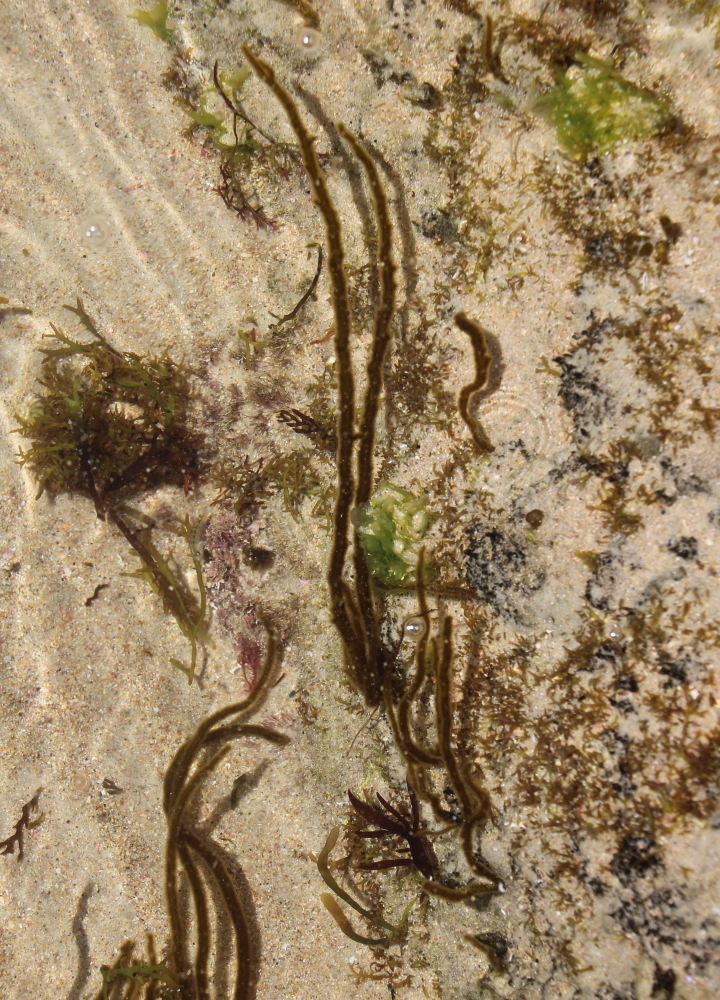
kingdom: Chromista
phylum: Ochrophyta
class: Phaeophyceae
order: Ectocarpales
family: Chordariaceae
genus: Myriogloea
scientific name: Myriogloea intestinalis
